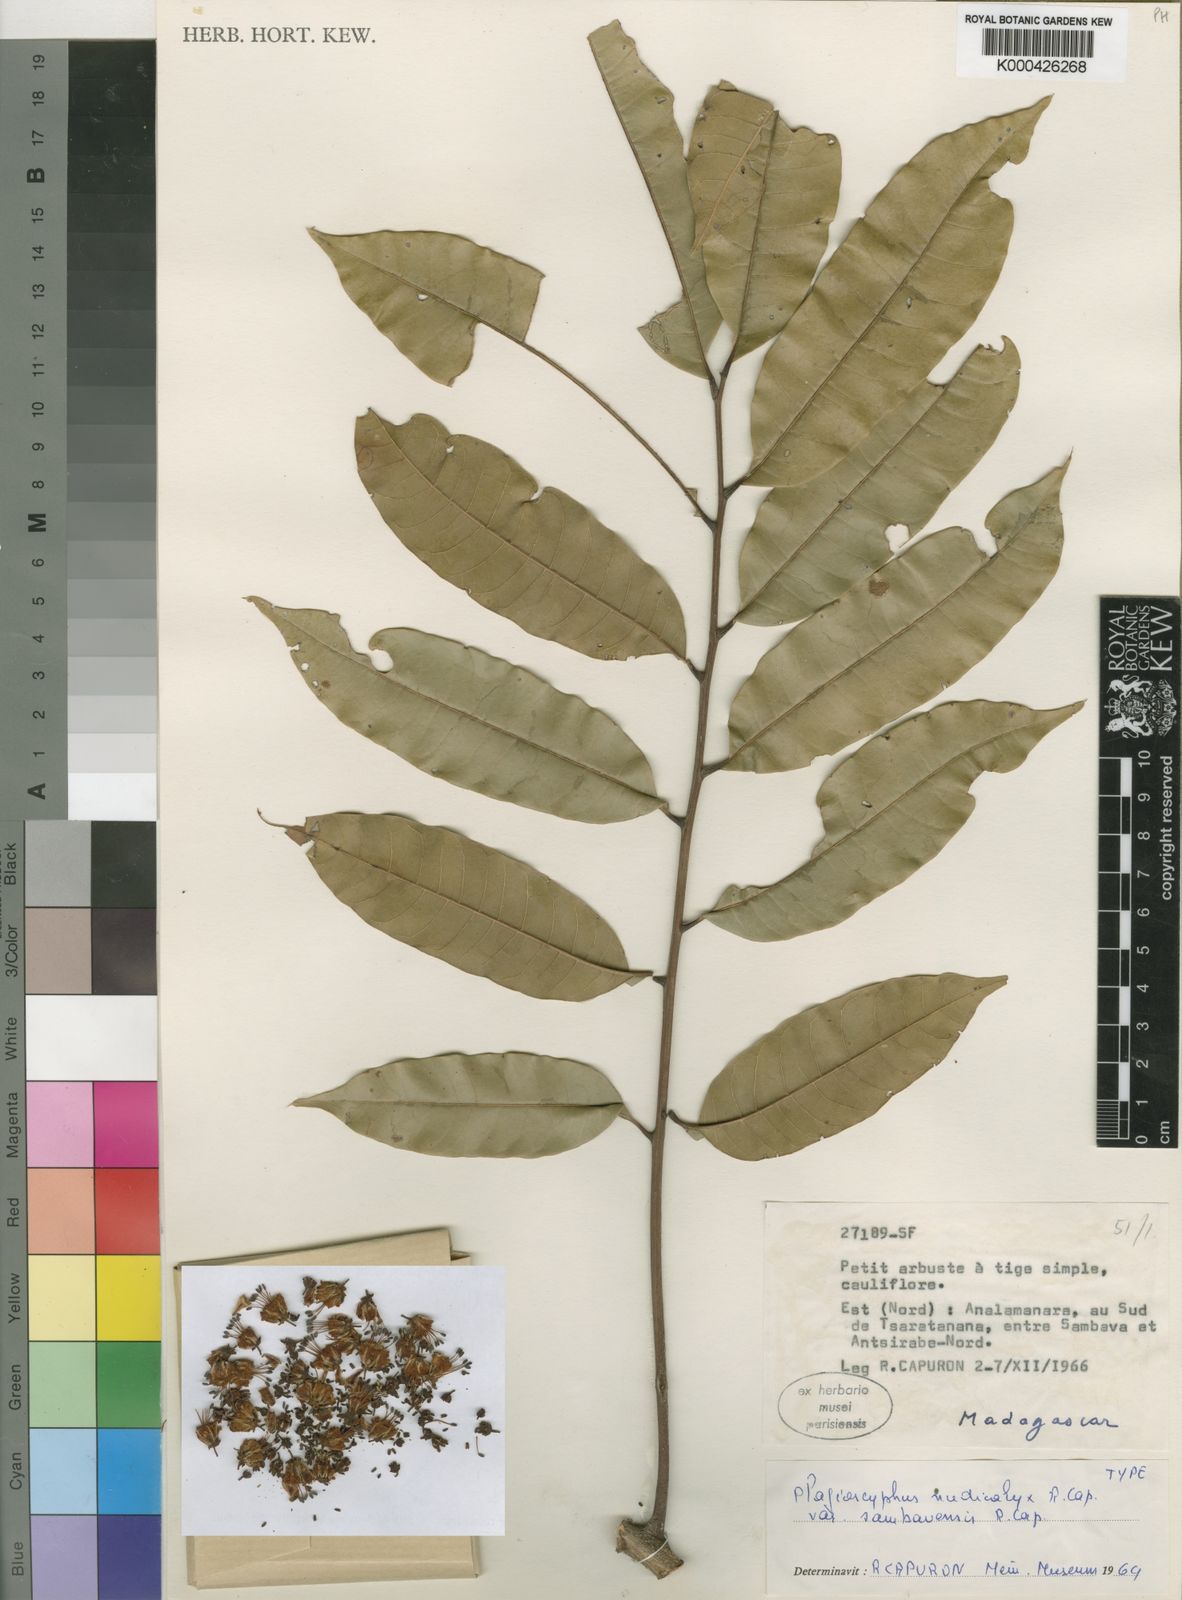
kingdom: Plantae
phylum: Tracheophyta
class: Magnoliopsida
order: Sapindales
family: Sapindaceae
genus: Plagioscyphus
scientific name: Plagioscyphus
